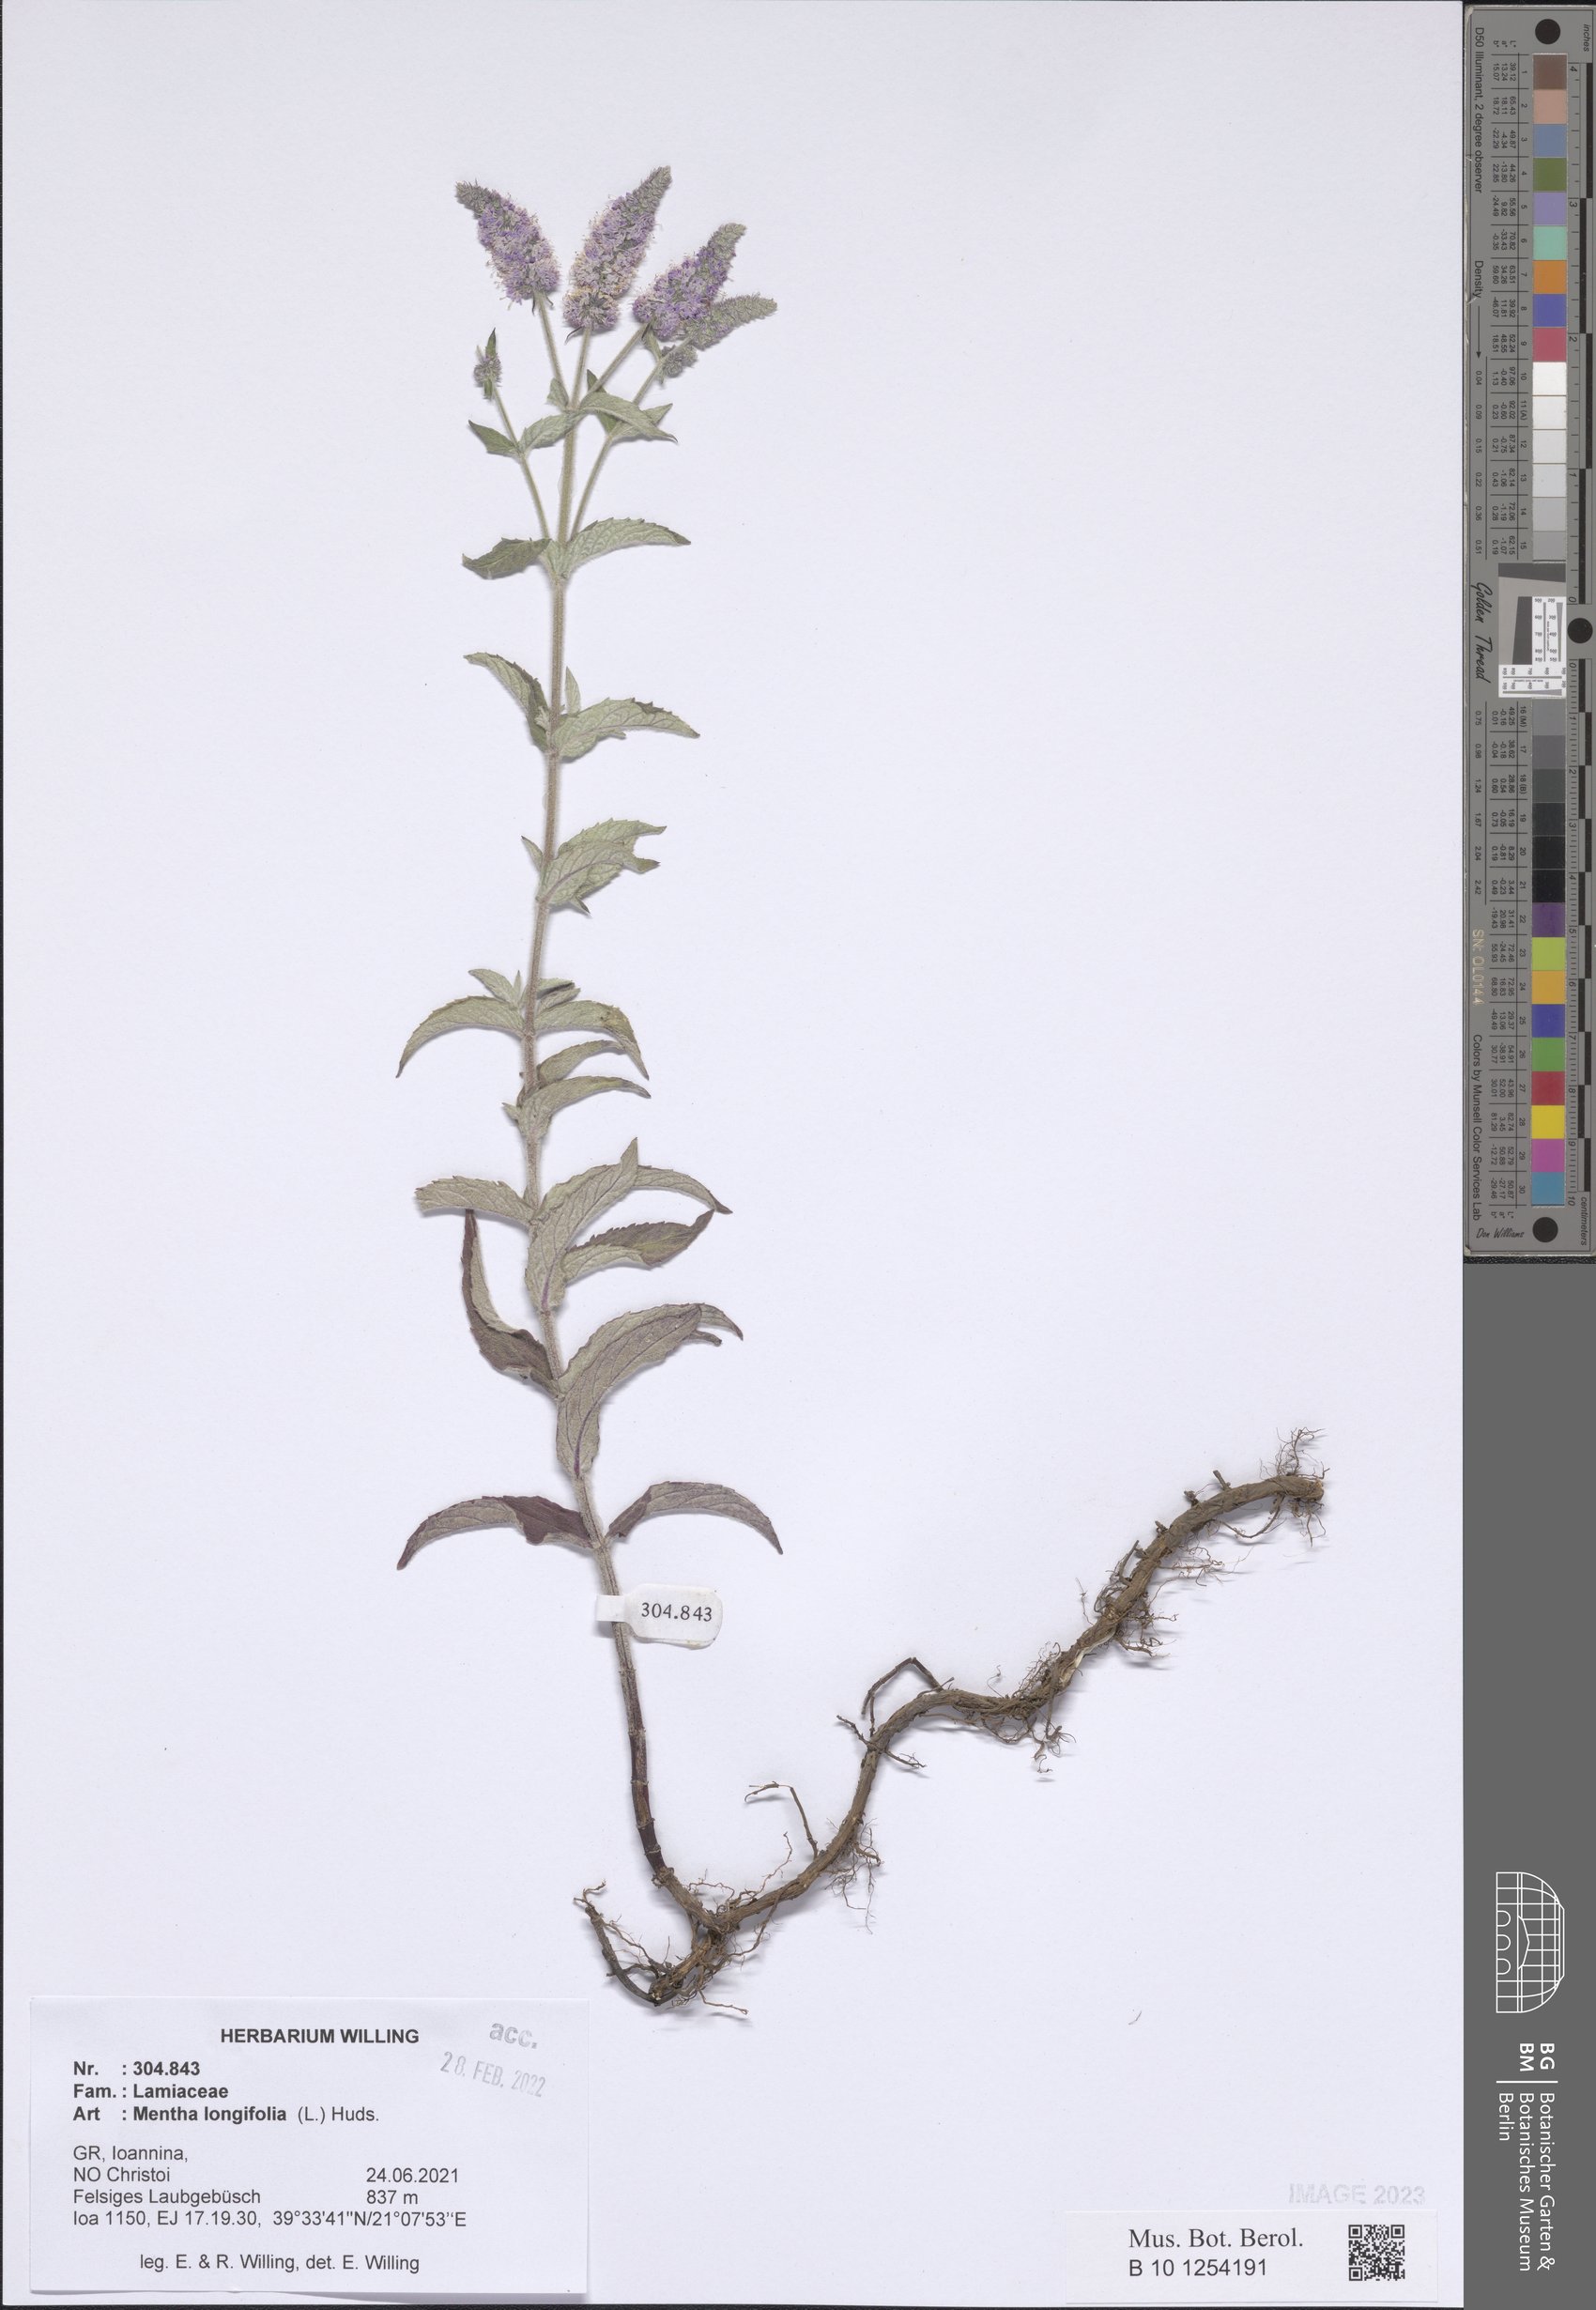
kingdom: Plantae
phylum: Tracheophyta
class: Magnoliopsida
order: Lamiales
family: Lamiaceae
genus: Mentha
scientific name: Mentha longifolia
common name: Horse mint
